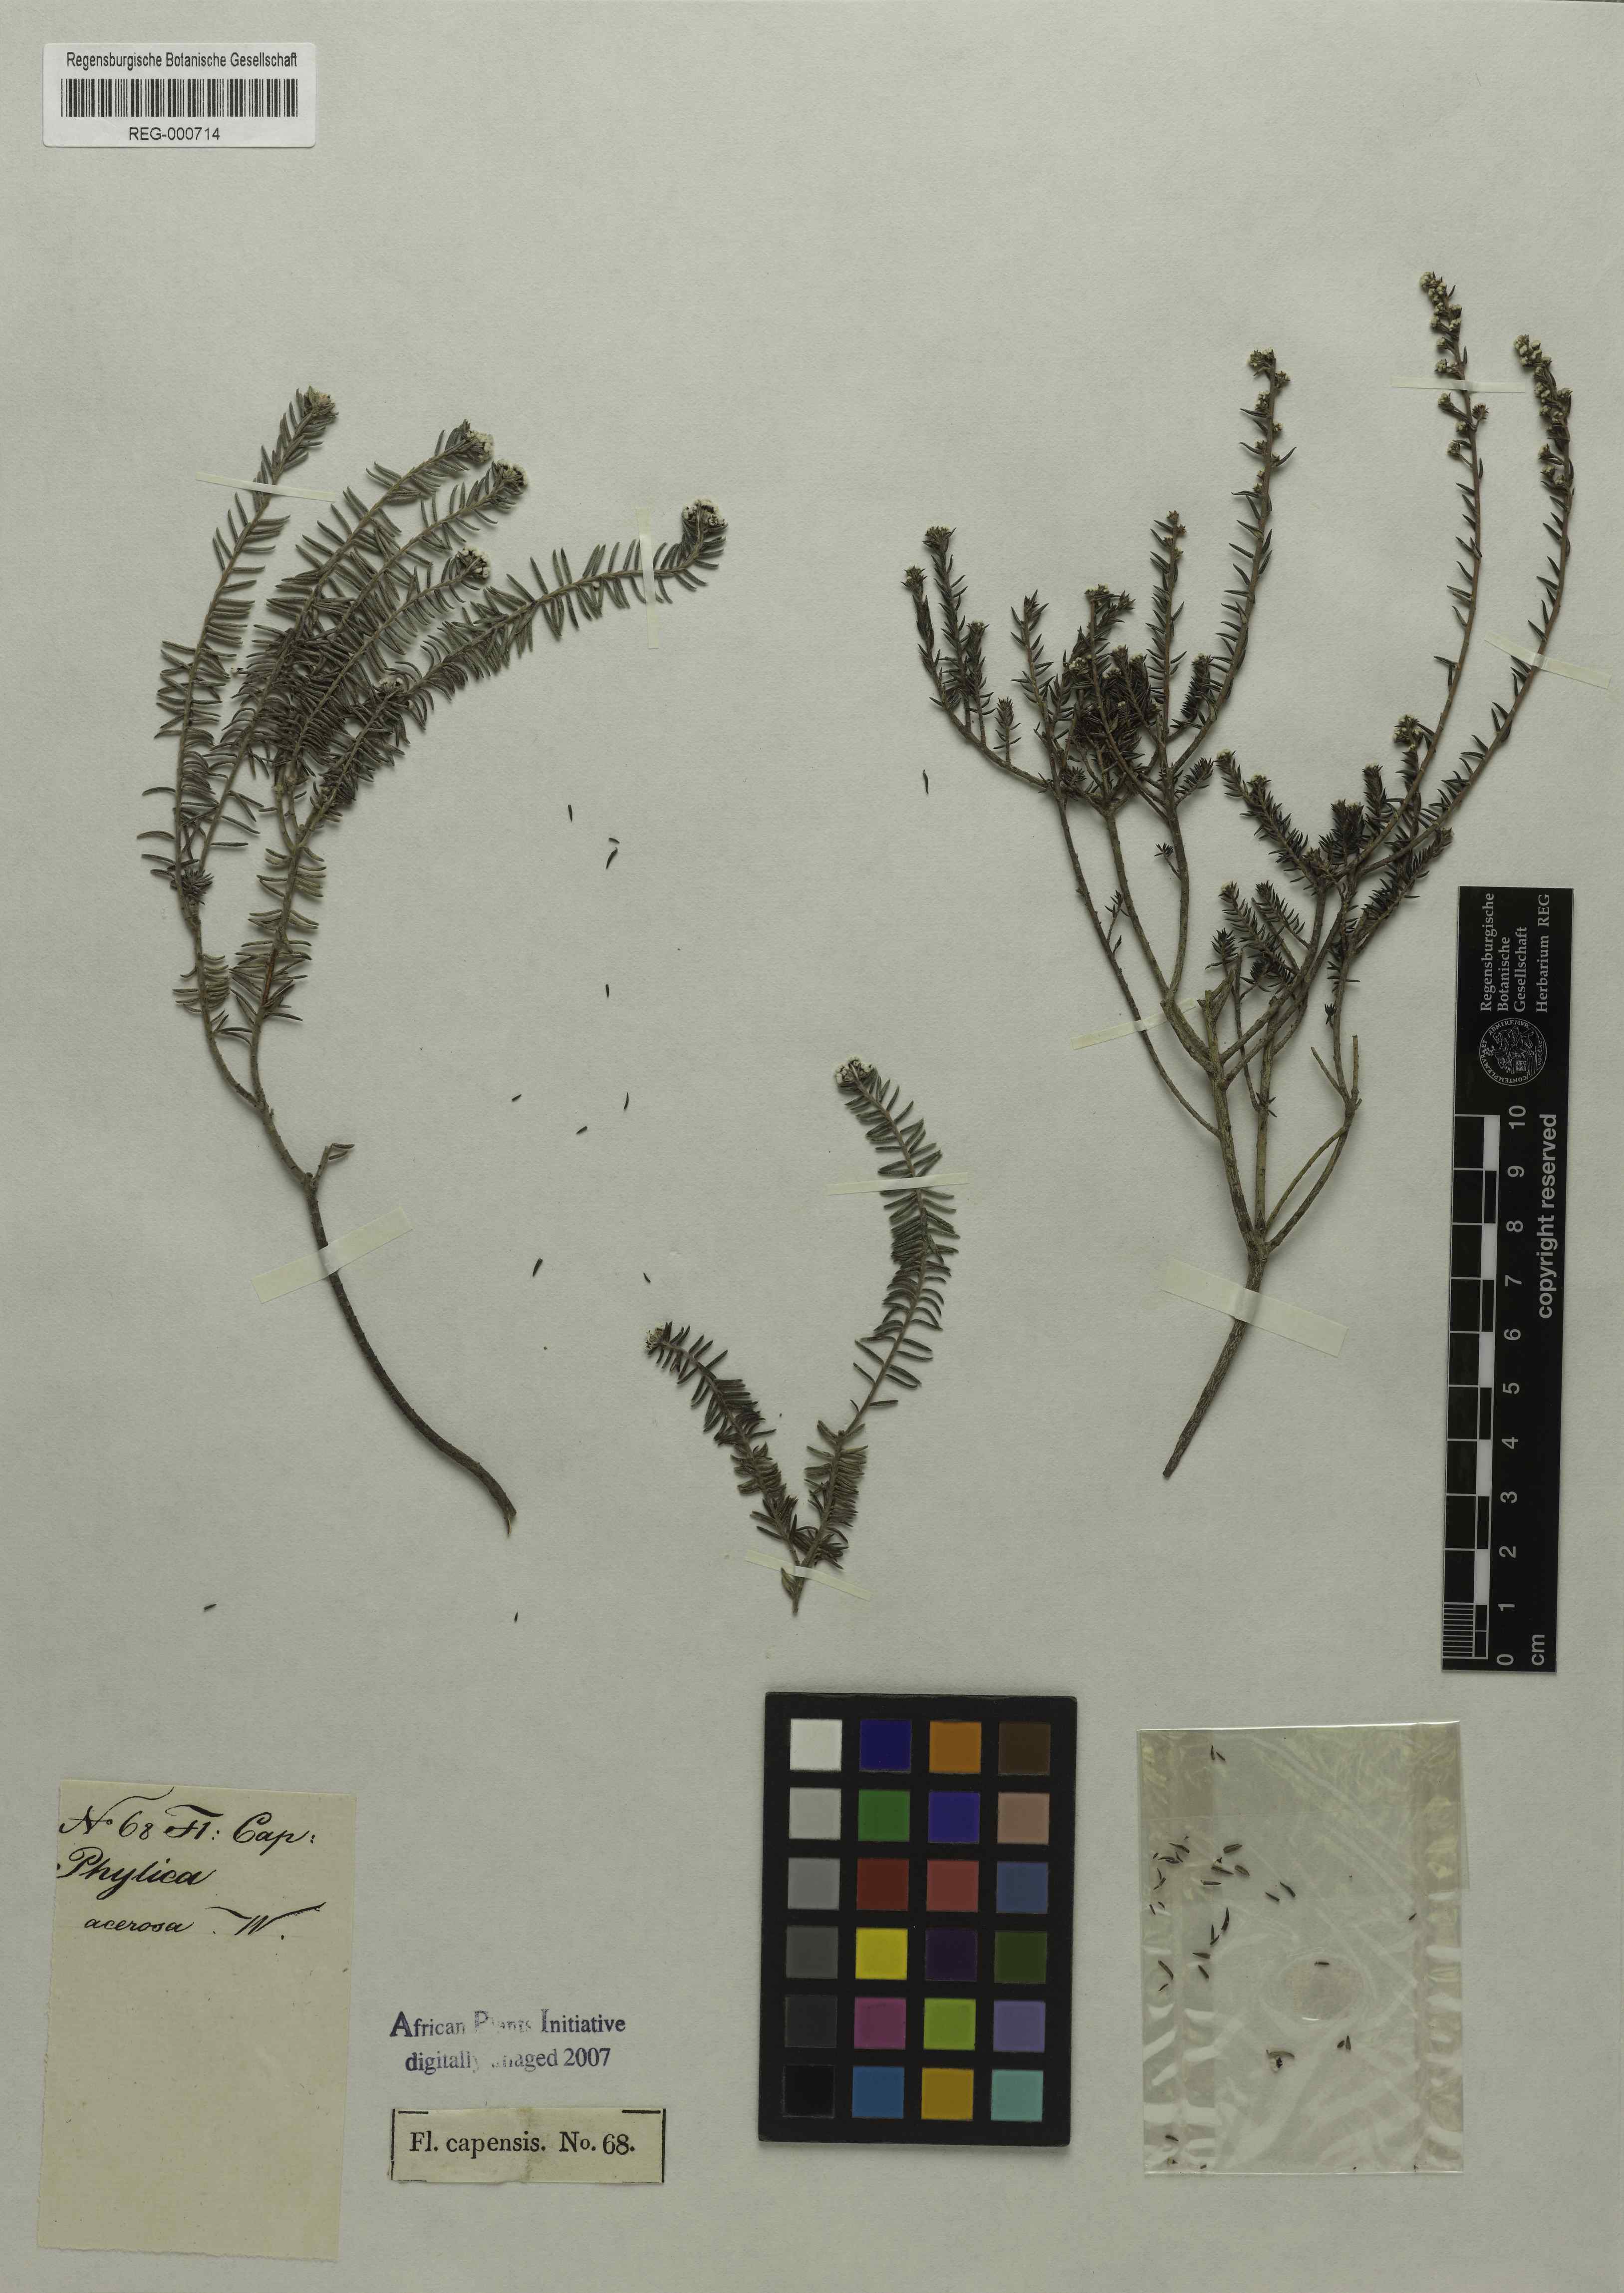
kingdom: Plantae
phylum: Tracheophyta
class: Magnoliopsida
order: Rosales
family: Rhamnaceae
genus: Phylica
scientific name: Phylica parviflora
